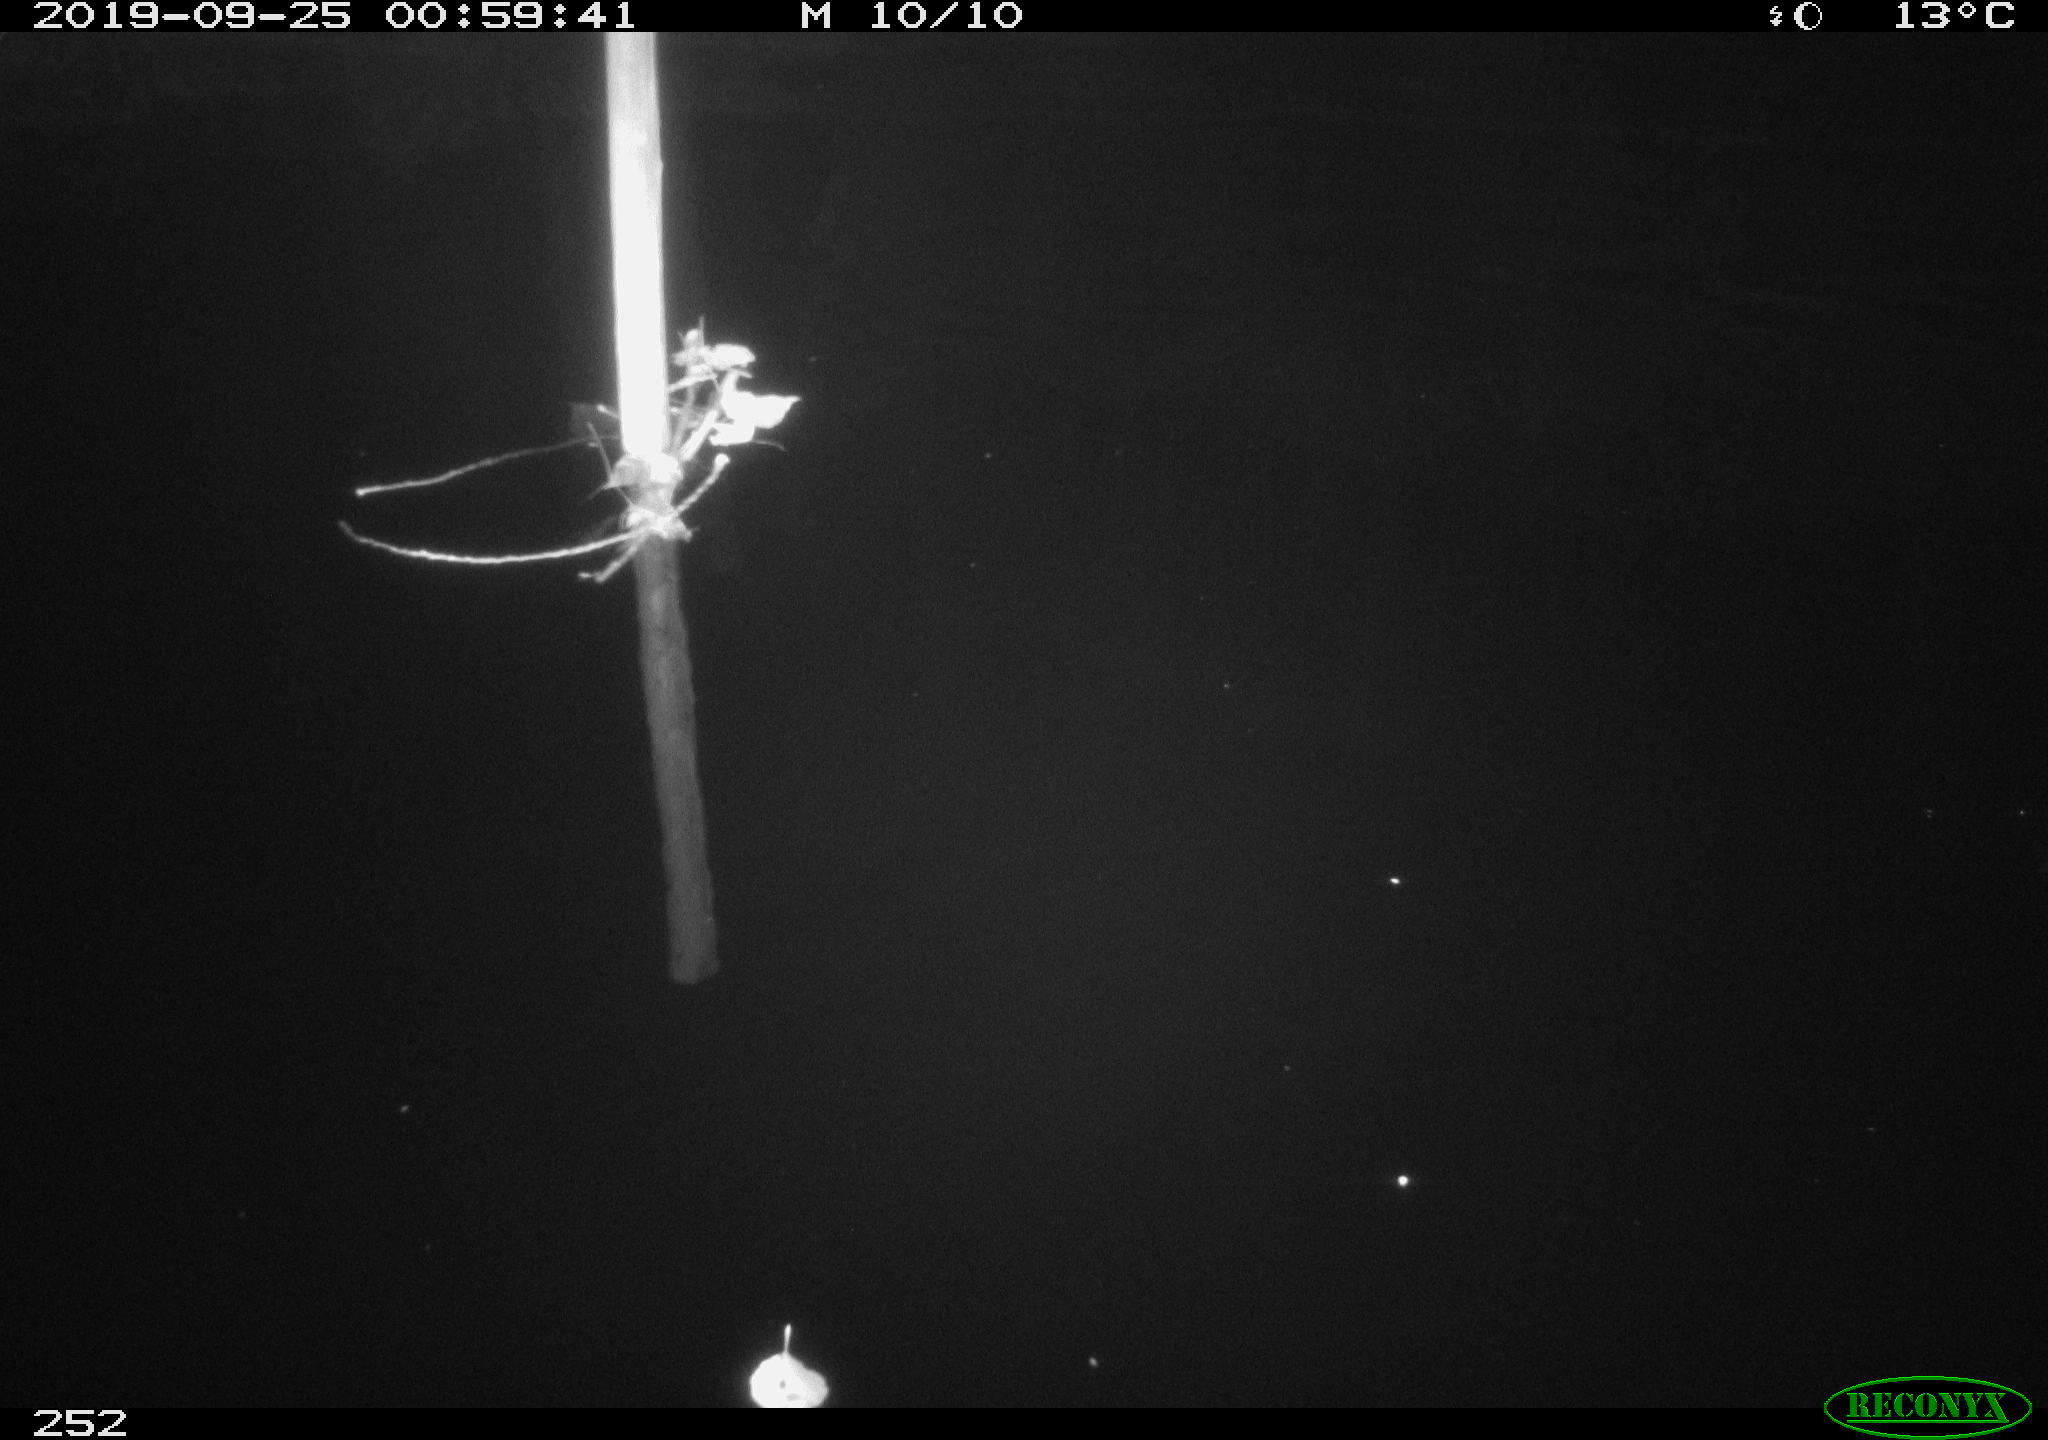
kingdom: Animalia
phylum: Chordata
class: Aves
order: Anseriformes
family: Anatidae
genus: Anas
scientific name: Anas platyrhynchos
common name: Mallard
